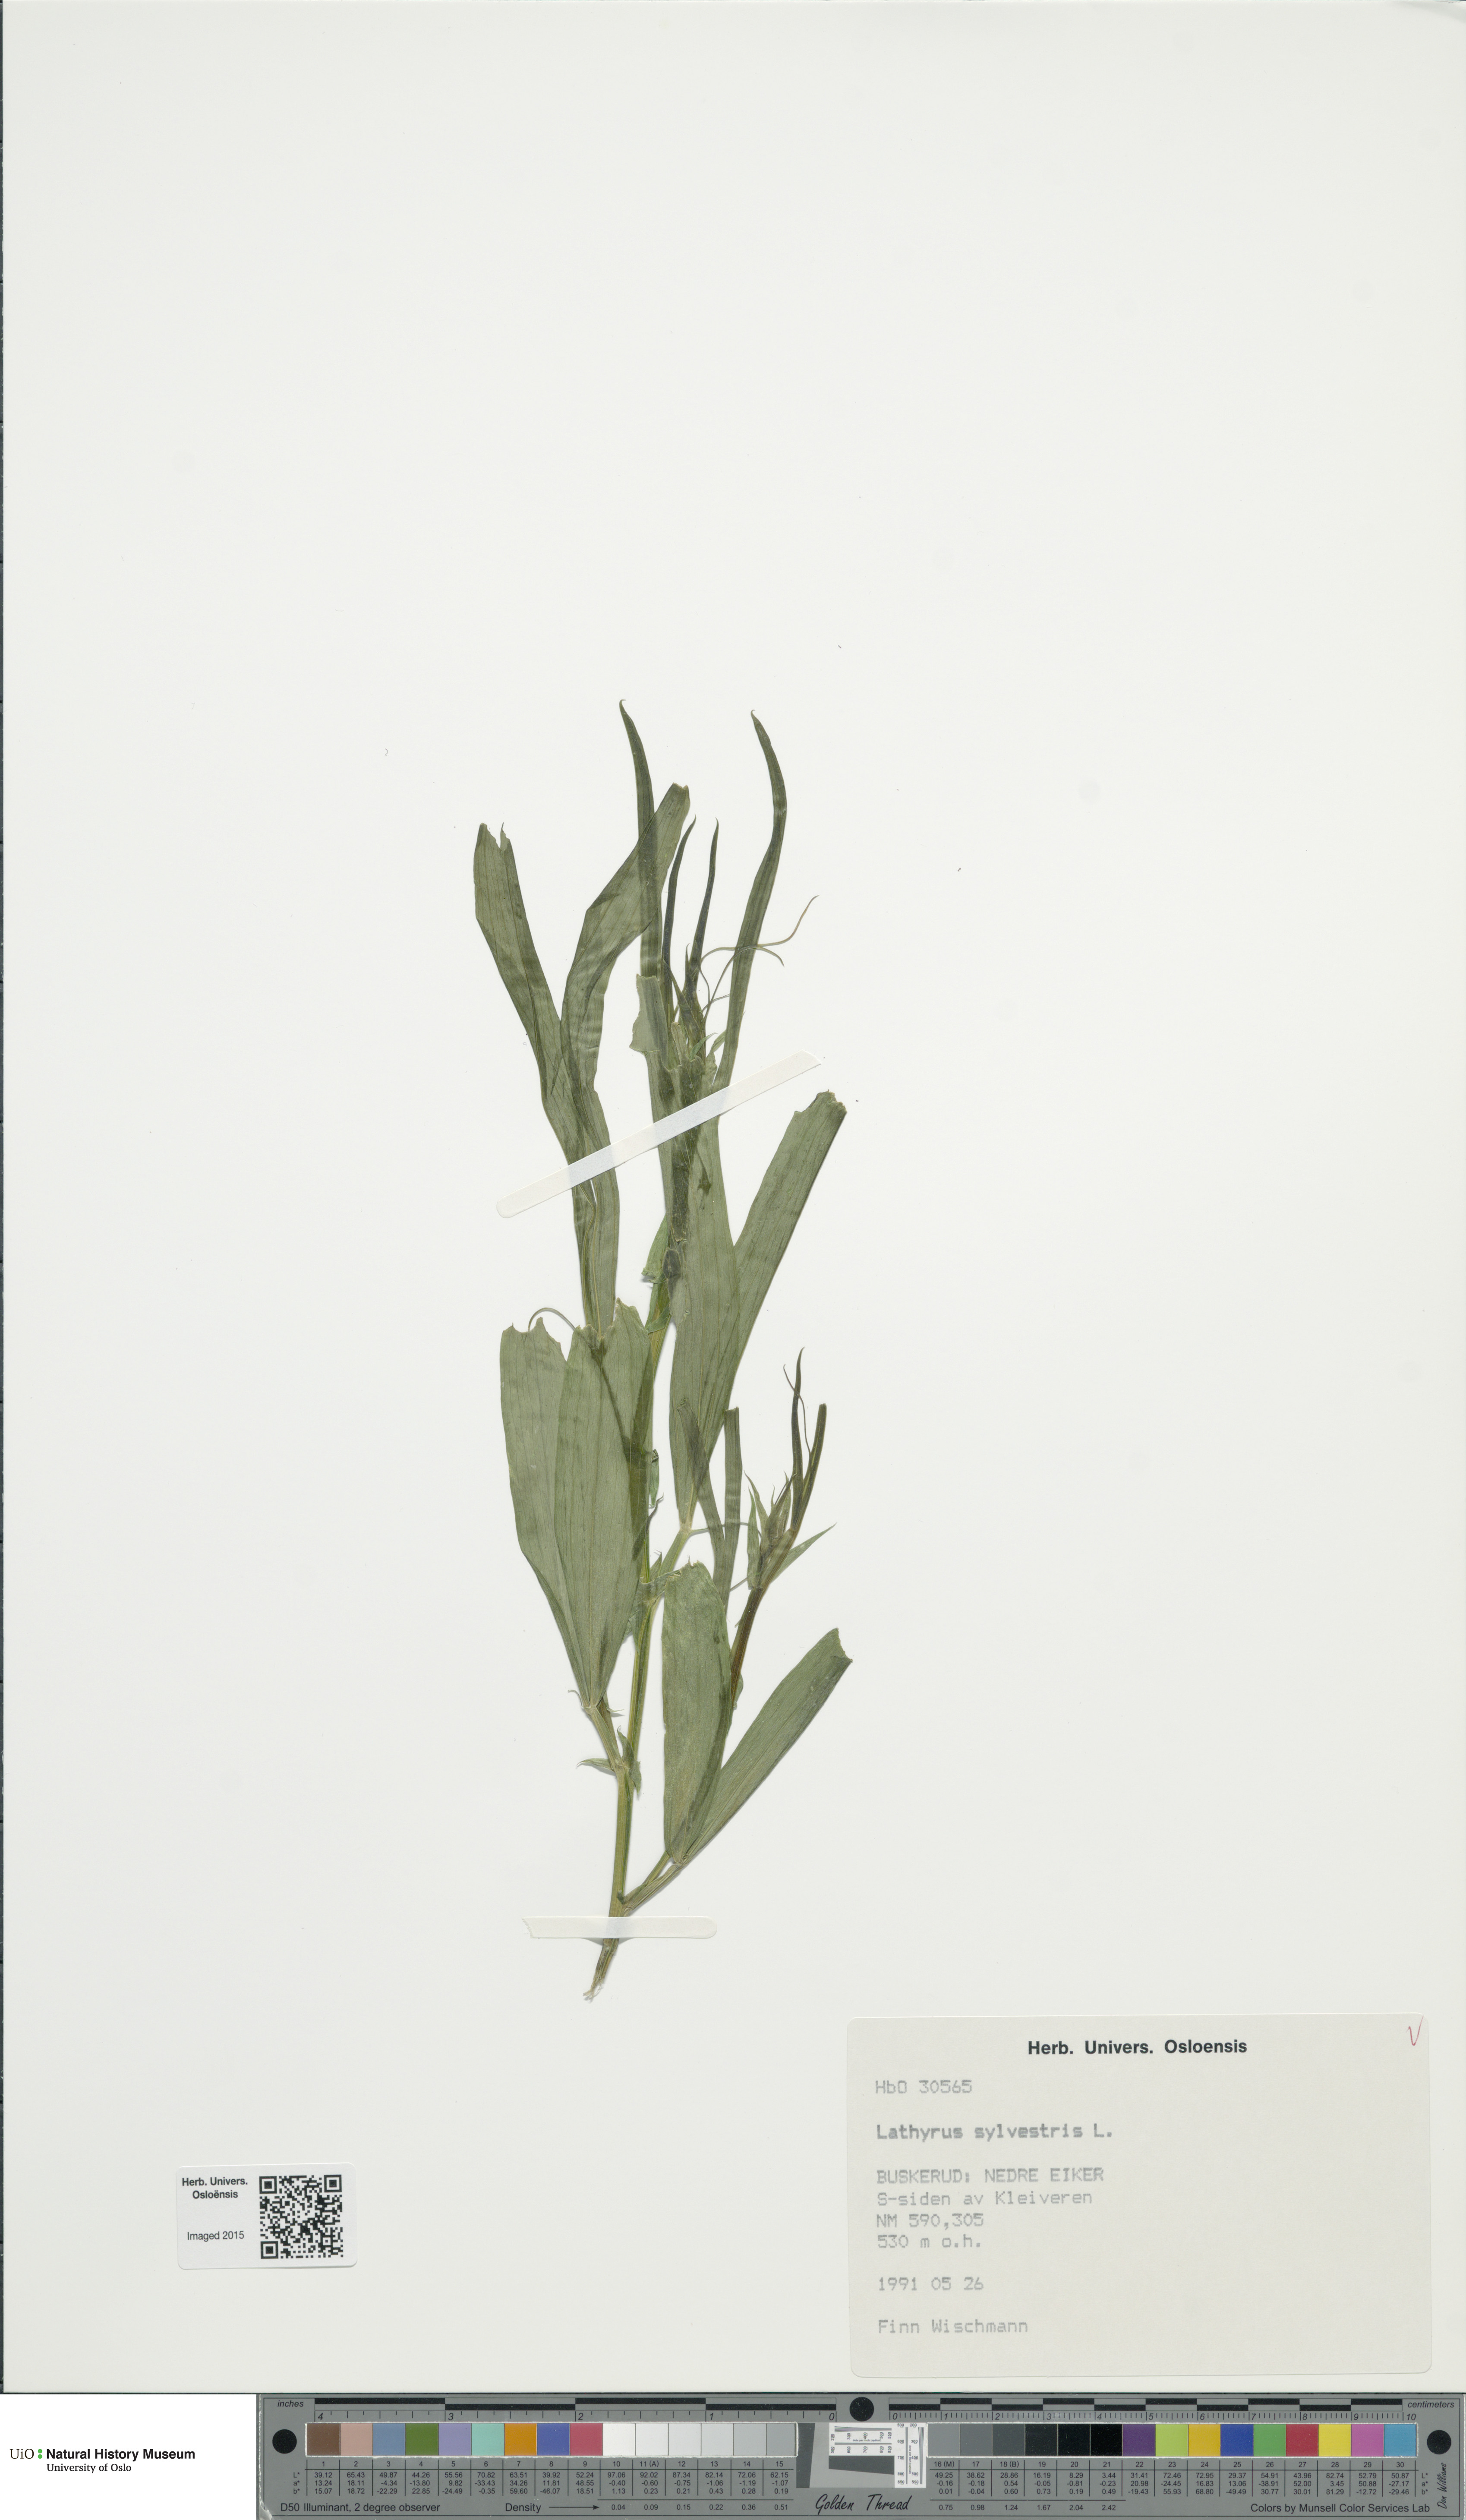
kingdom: Plantae
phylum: Tracheophyta
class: Magnoliopsida
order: Fabales
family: Fabaceae
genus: Lathyrus
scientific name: Lathyrus sylvestris
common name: Flat pea
